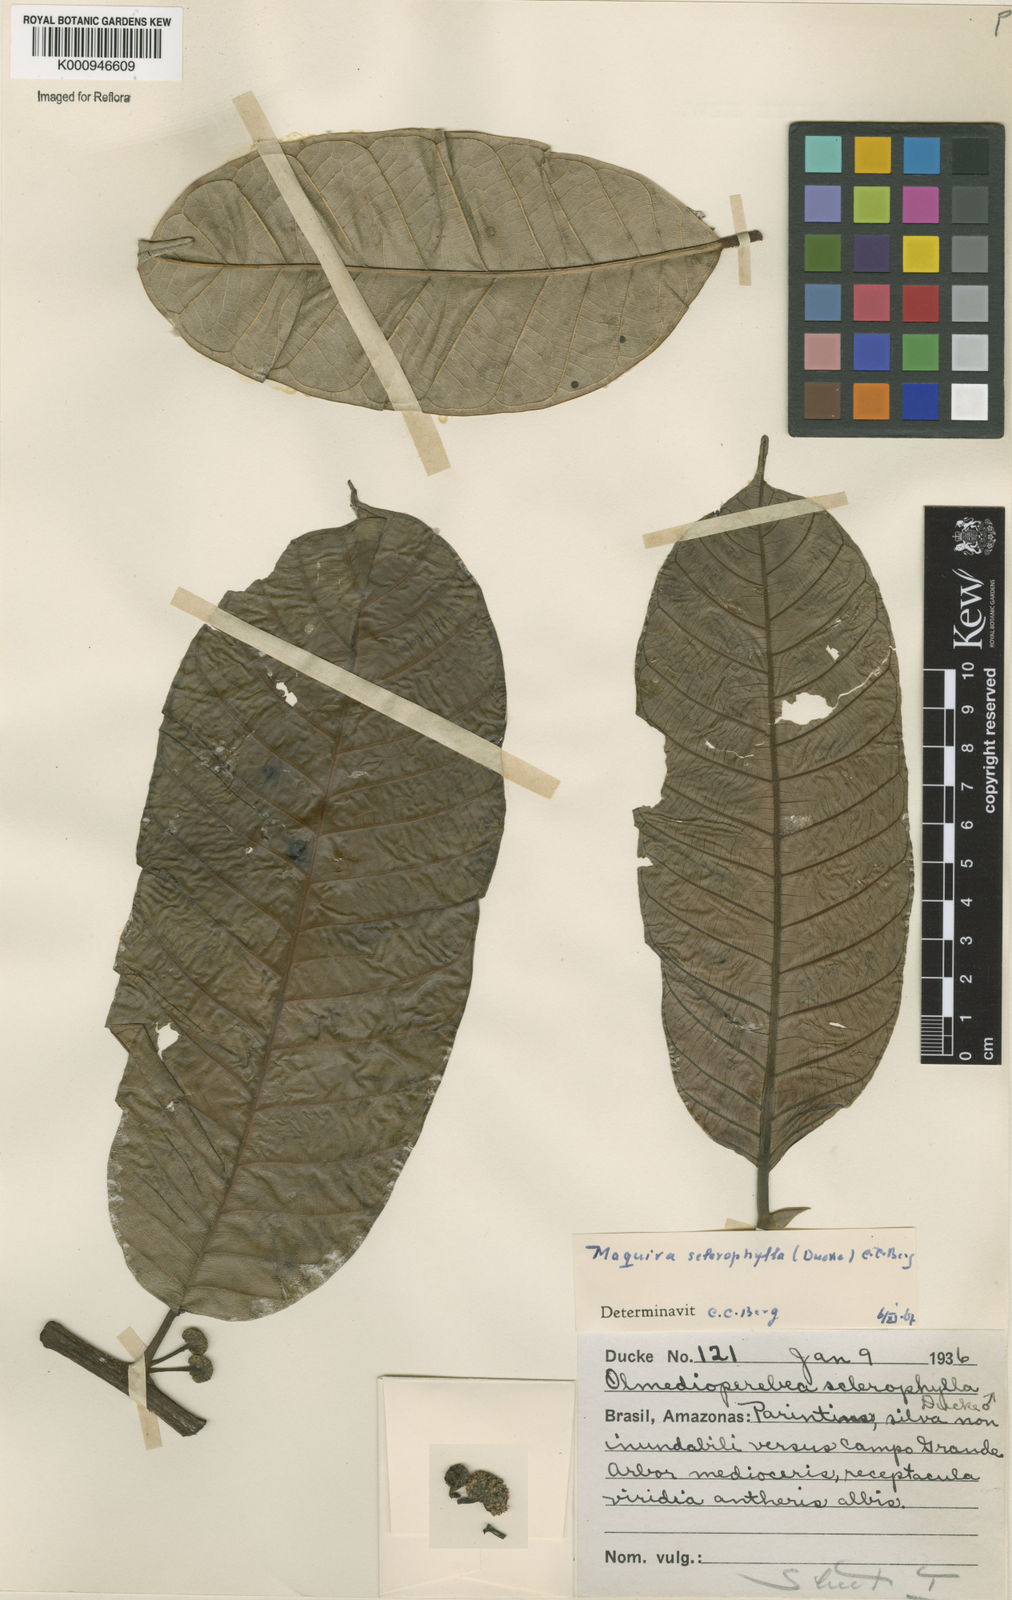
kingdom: Plantae
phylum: Tracheophyta
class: Magnoliopsida
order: Rosales
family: Moraceae
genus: Maquira
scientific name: Maquira sclerophylla
